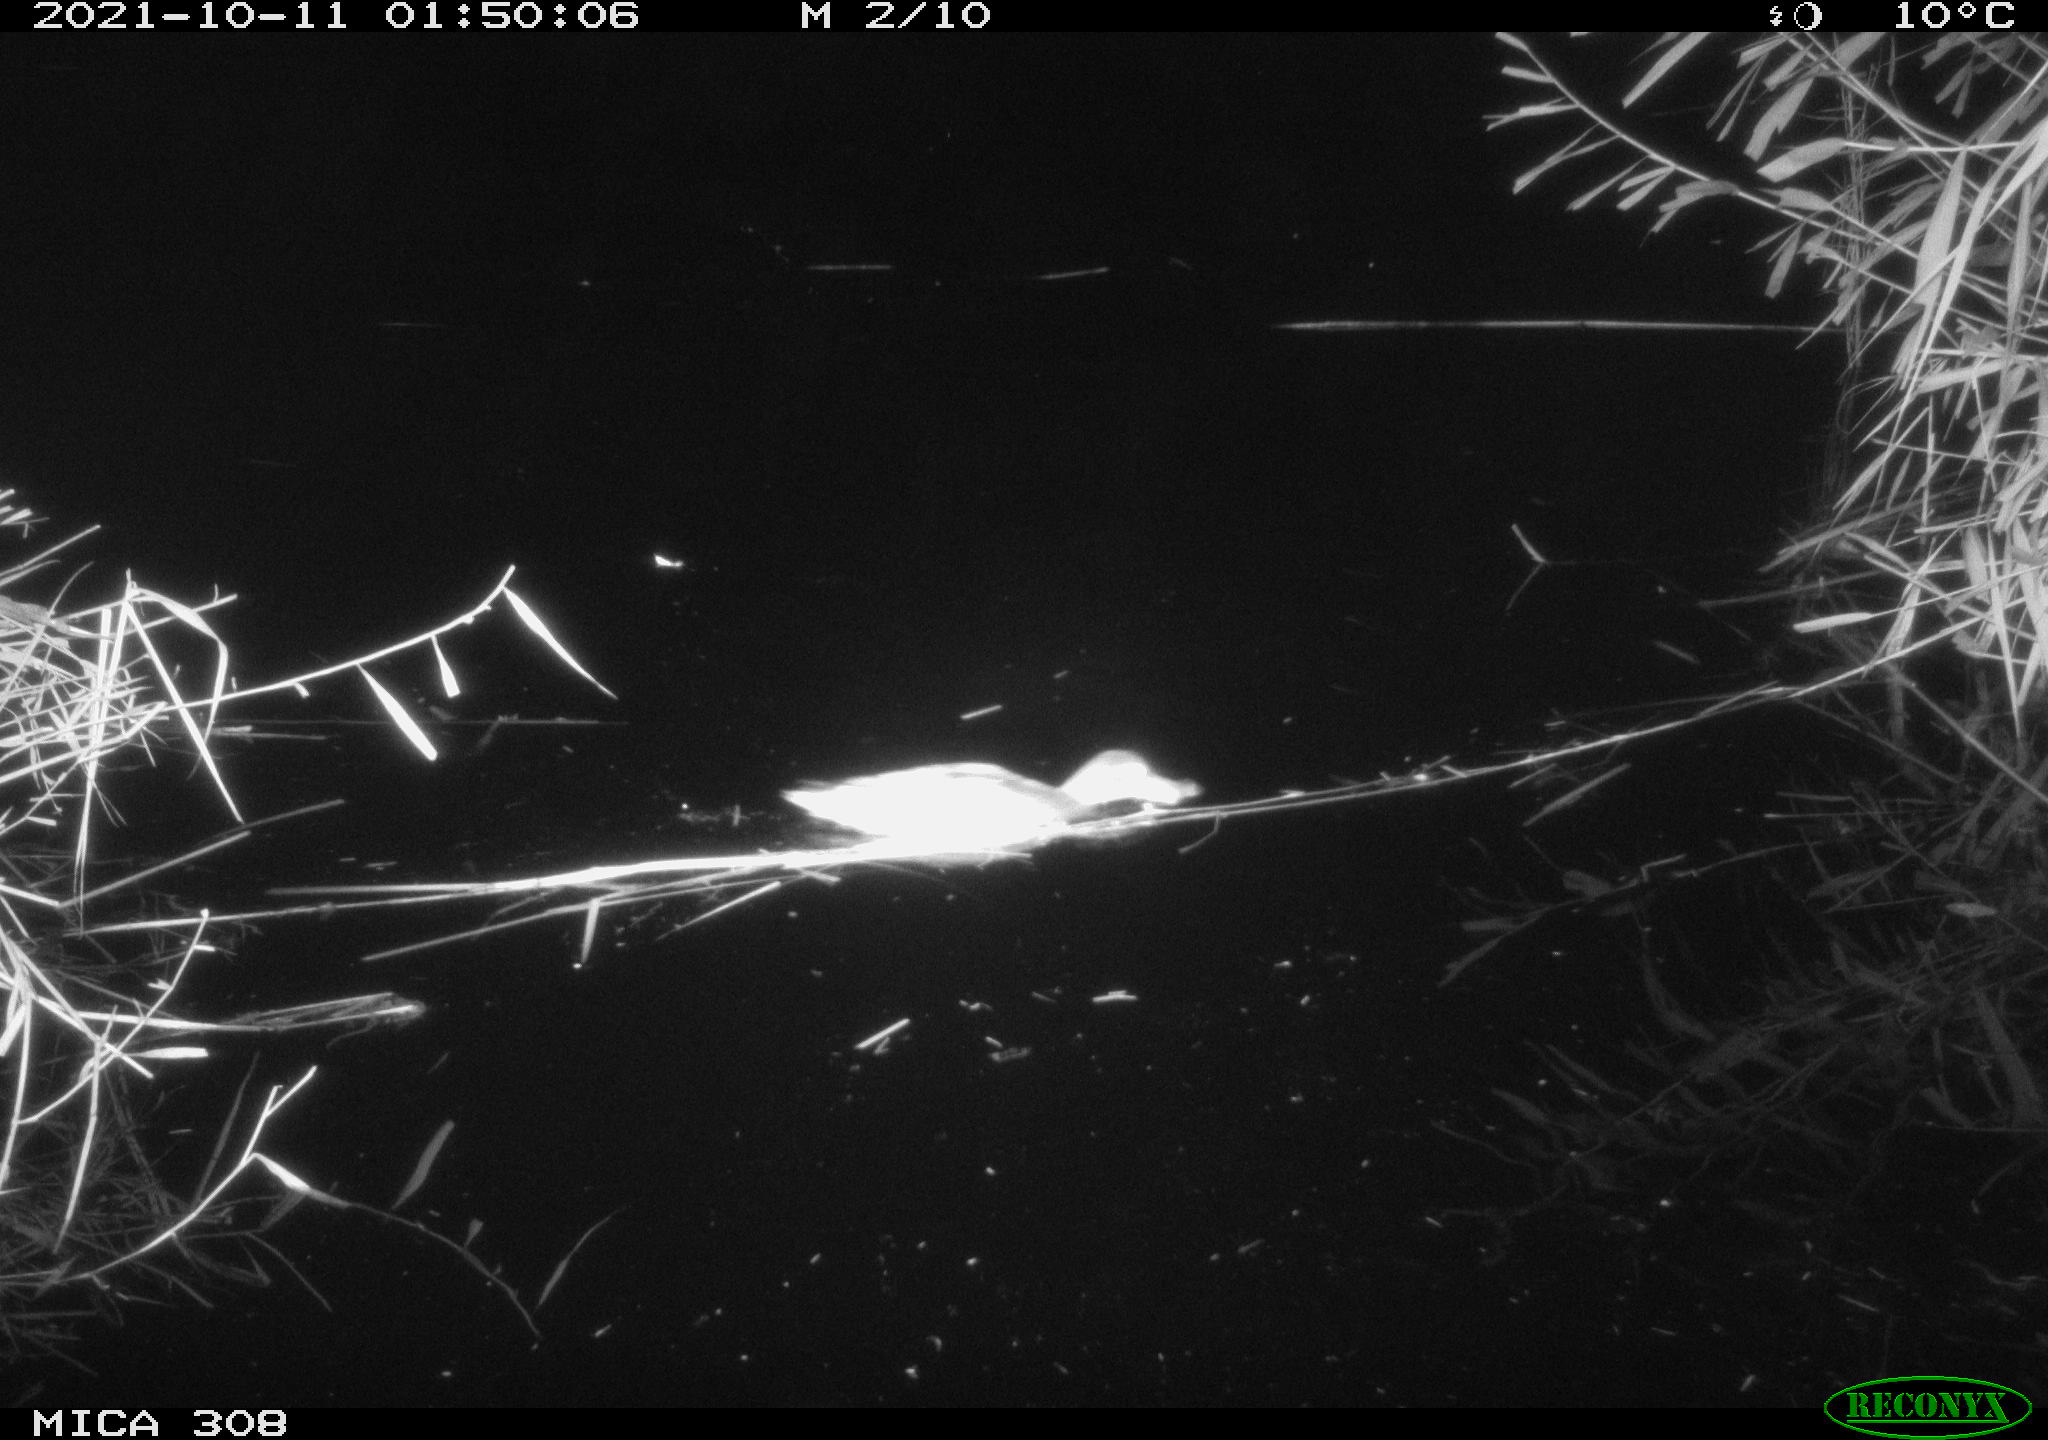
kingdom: Animalia
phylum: Chordata
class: Aves
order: Anseriformes
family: Anatidae
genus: Spatula
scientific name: Spatula clypeata
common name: Northern shoveler
